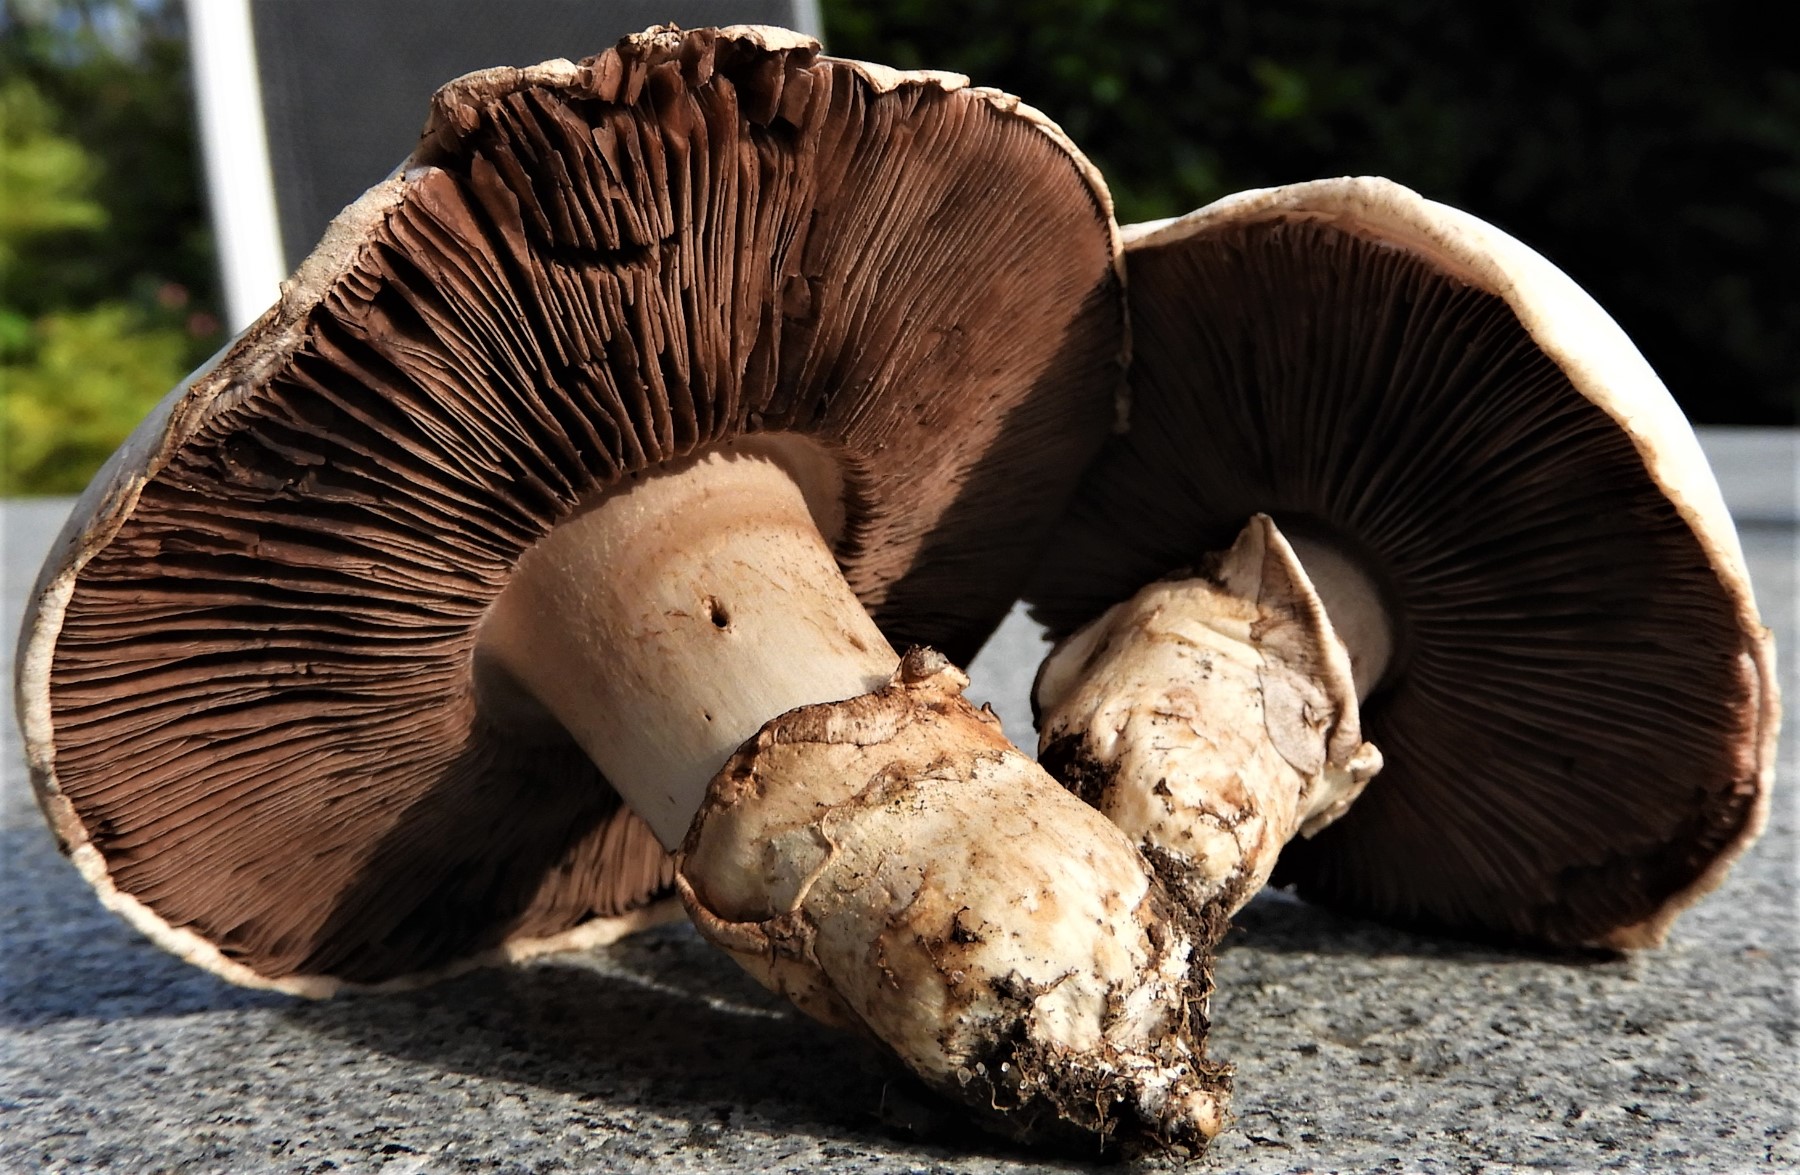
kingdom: Fungi
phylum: Basidiomycota
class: Agaricomycetes
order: Agaricales
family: Agaricaceae
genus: Agaricus
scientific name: Agaricus bitorquis
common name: vej-champignon
